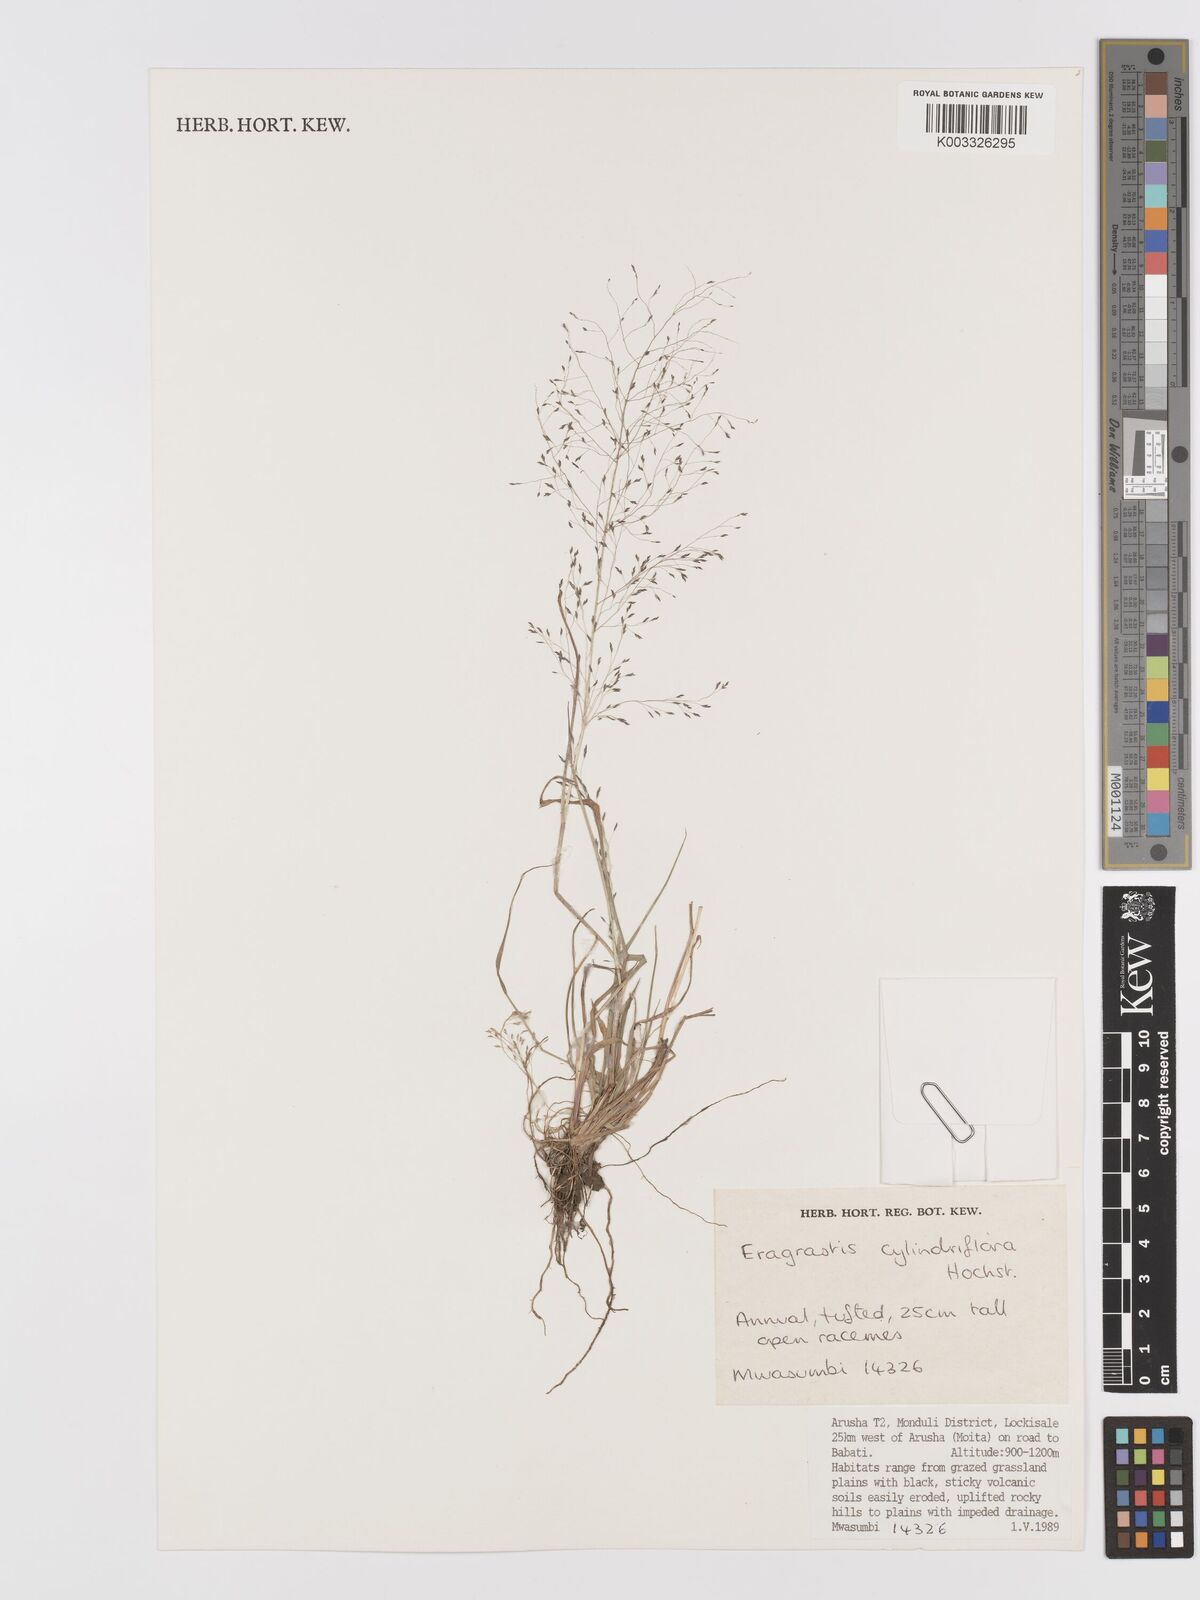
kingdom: Plantae
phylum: Tracheophyta
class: Liliopsida
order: Poales
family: Poaceae
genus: Eragrostis
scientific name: Eragrostis cylindriflora
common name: Cylinderflower lovegrass
